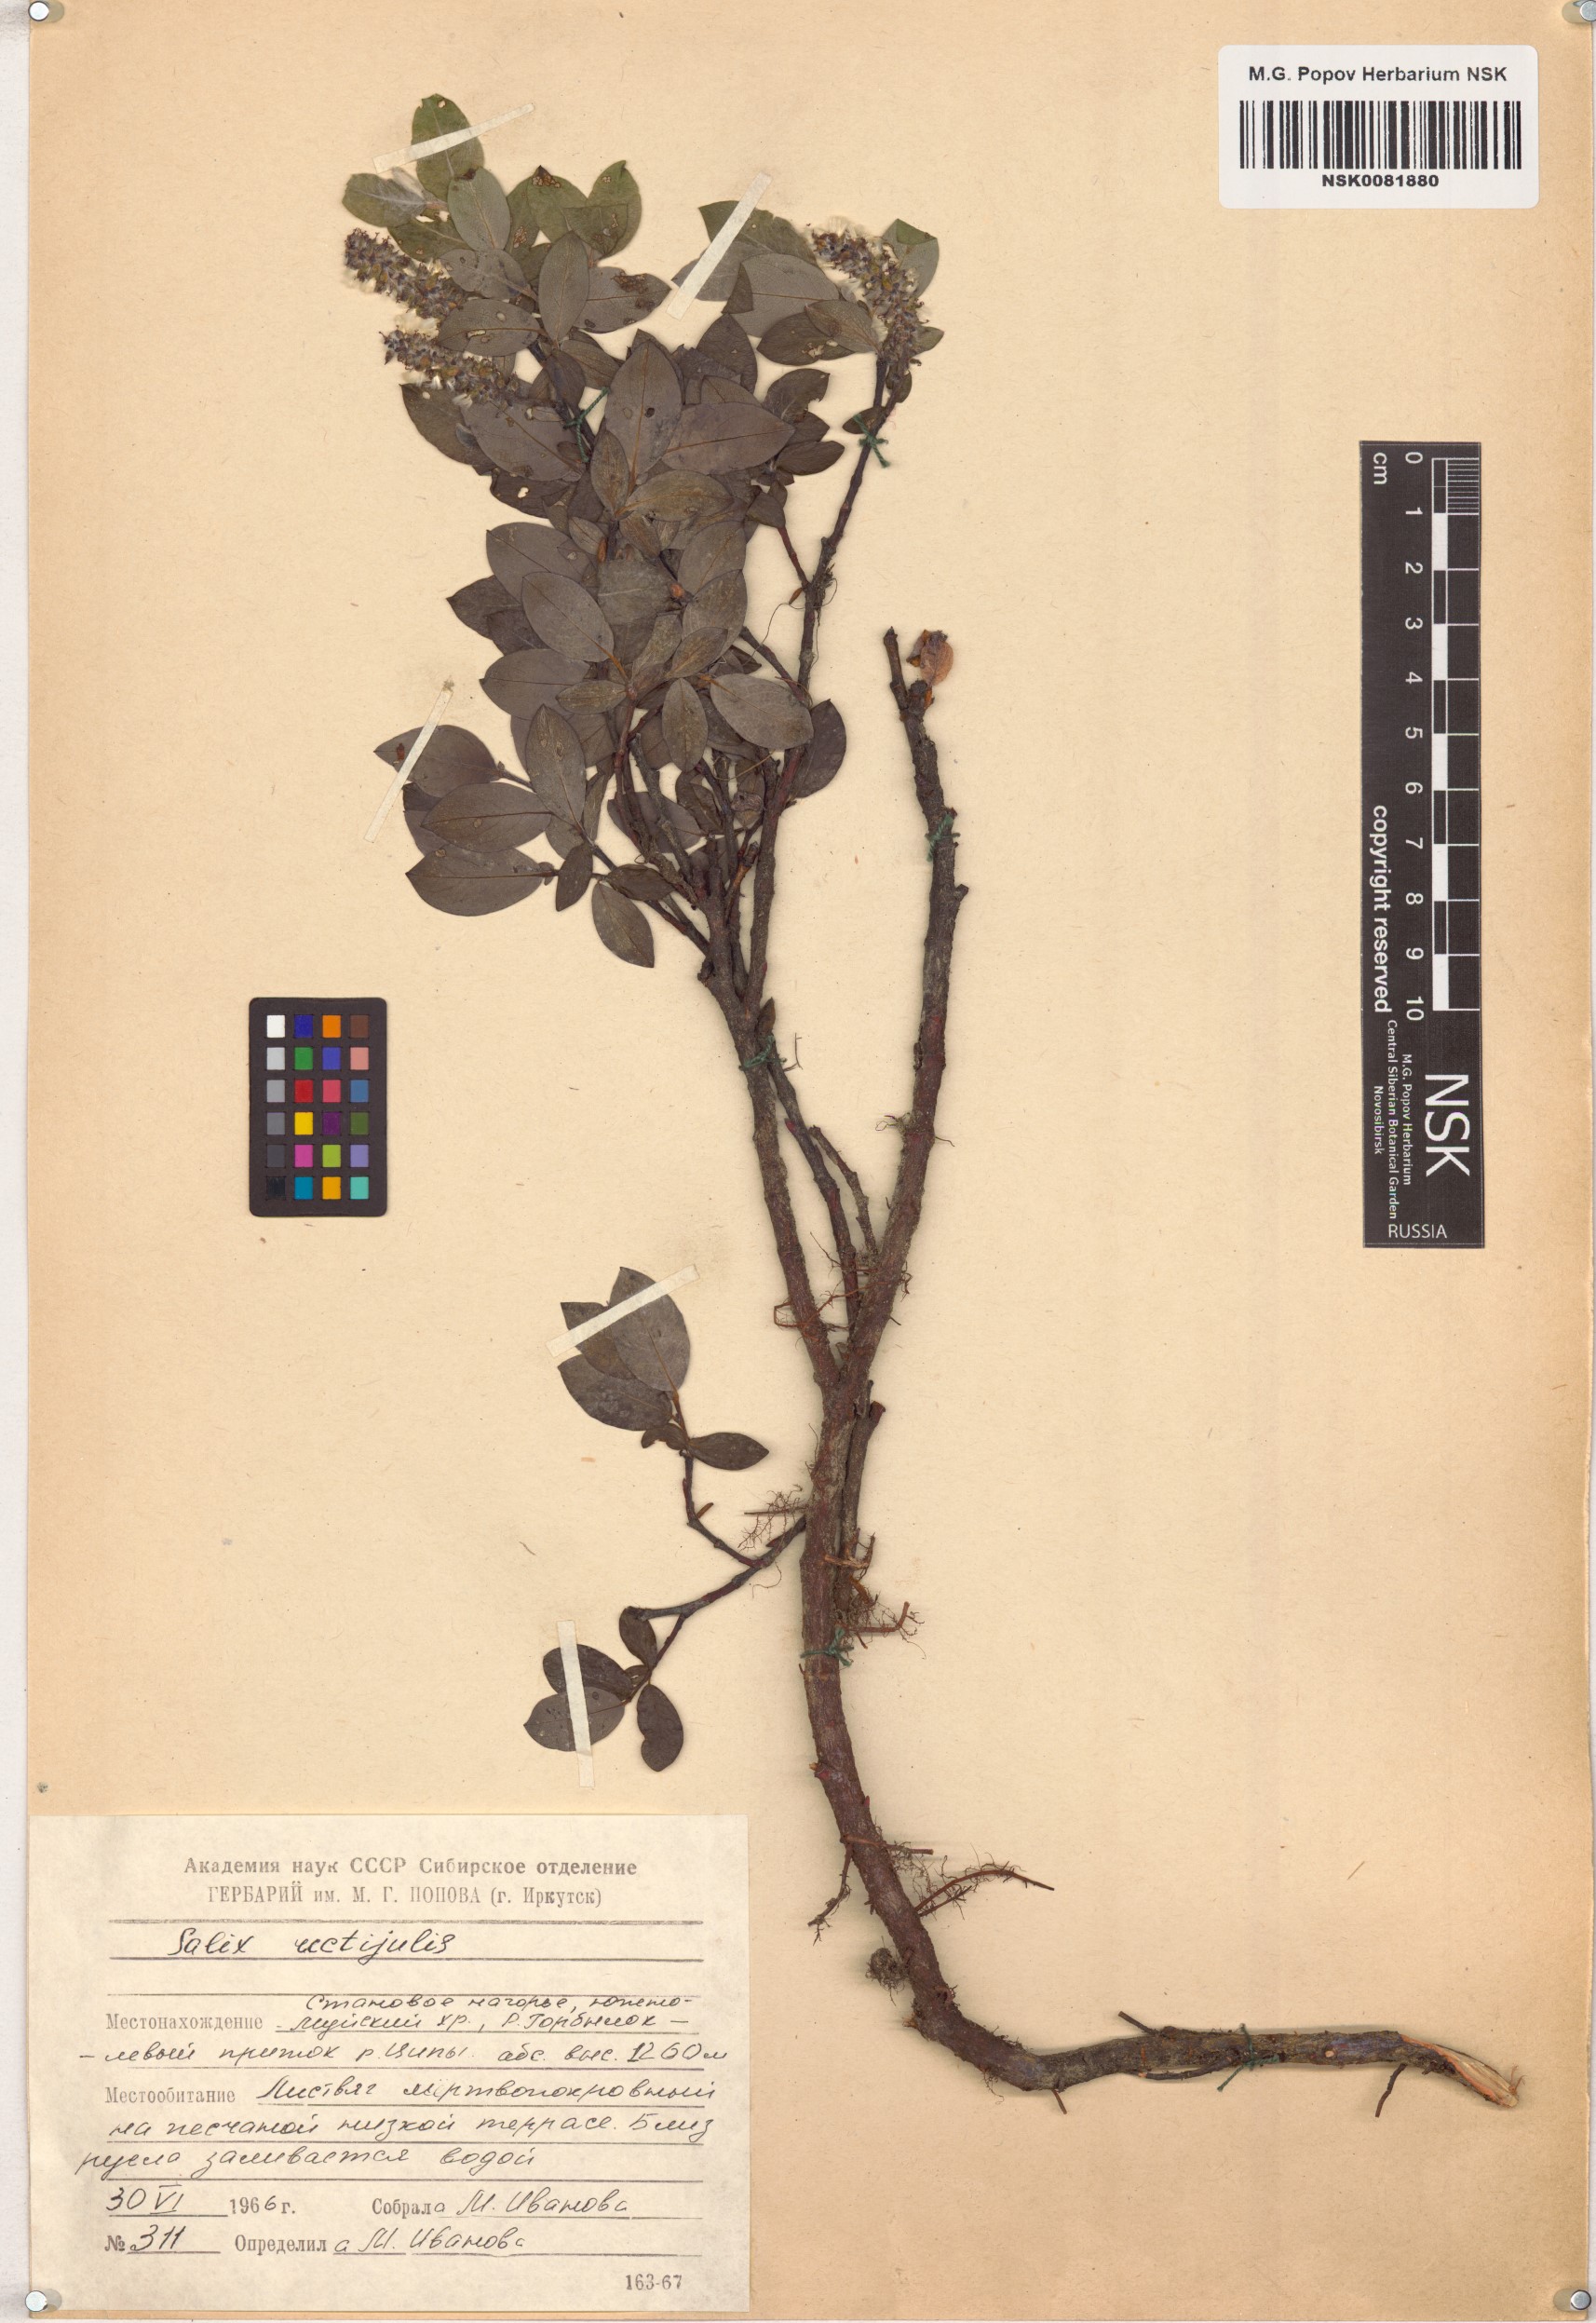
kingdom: Plantae
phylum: Tracheophyta
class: Magnoliopsida
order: Malpighiales
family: Salicaceae
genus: Salix
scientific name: Salix rectijulis
